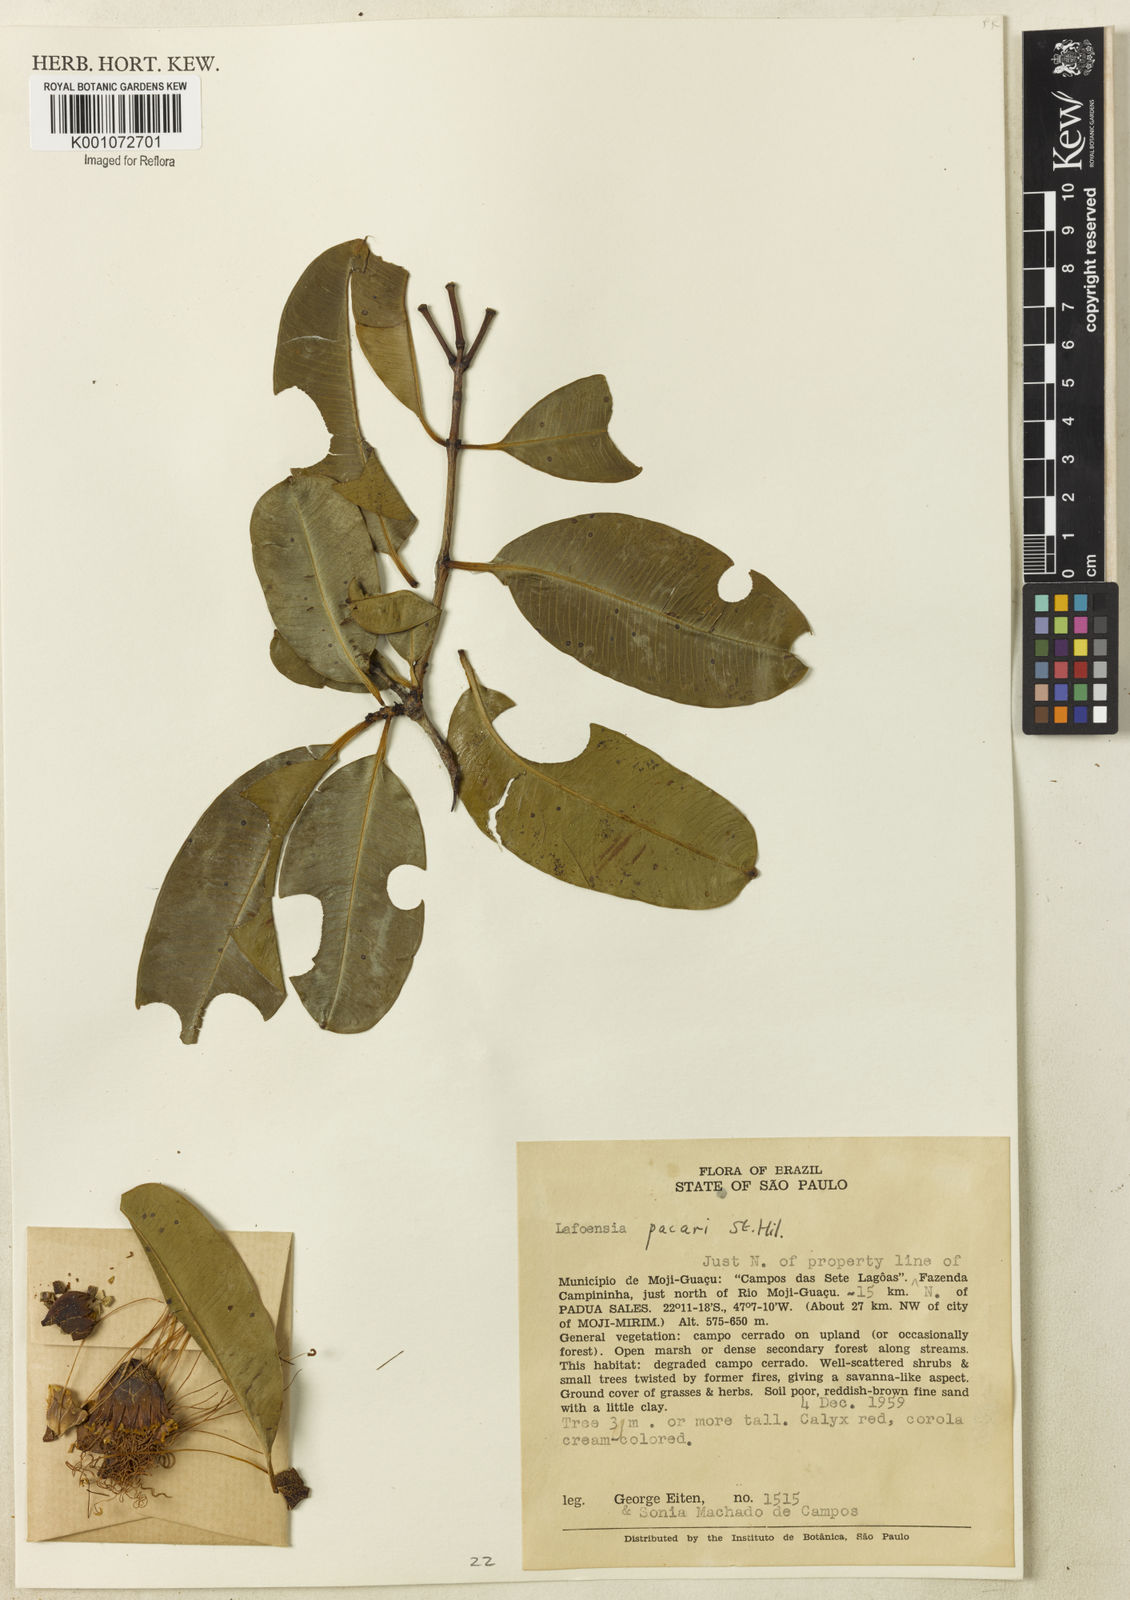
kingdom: Plantae
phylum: Tracheophyta
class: Magnoliopsida
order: Myrtales
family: Lythraceae
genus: Lafoensia
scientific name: Lafoensia pacari
